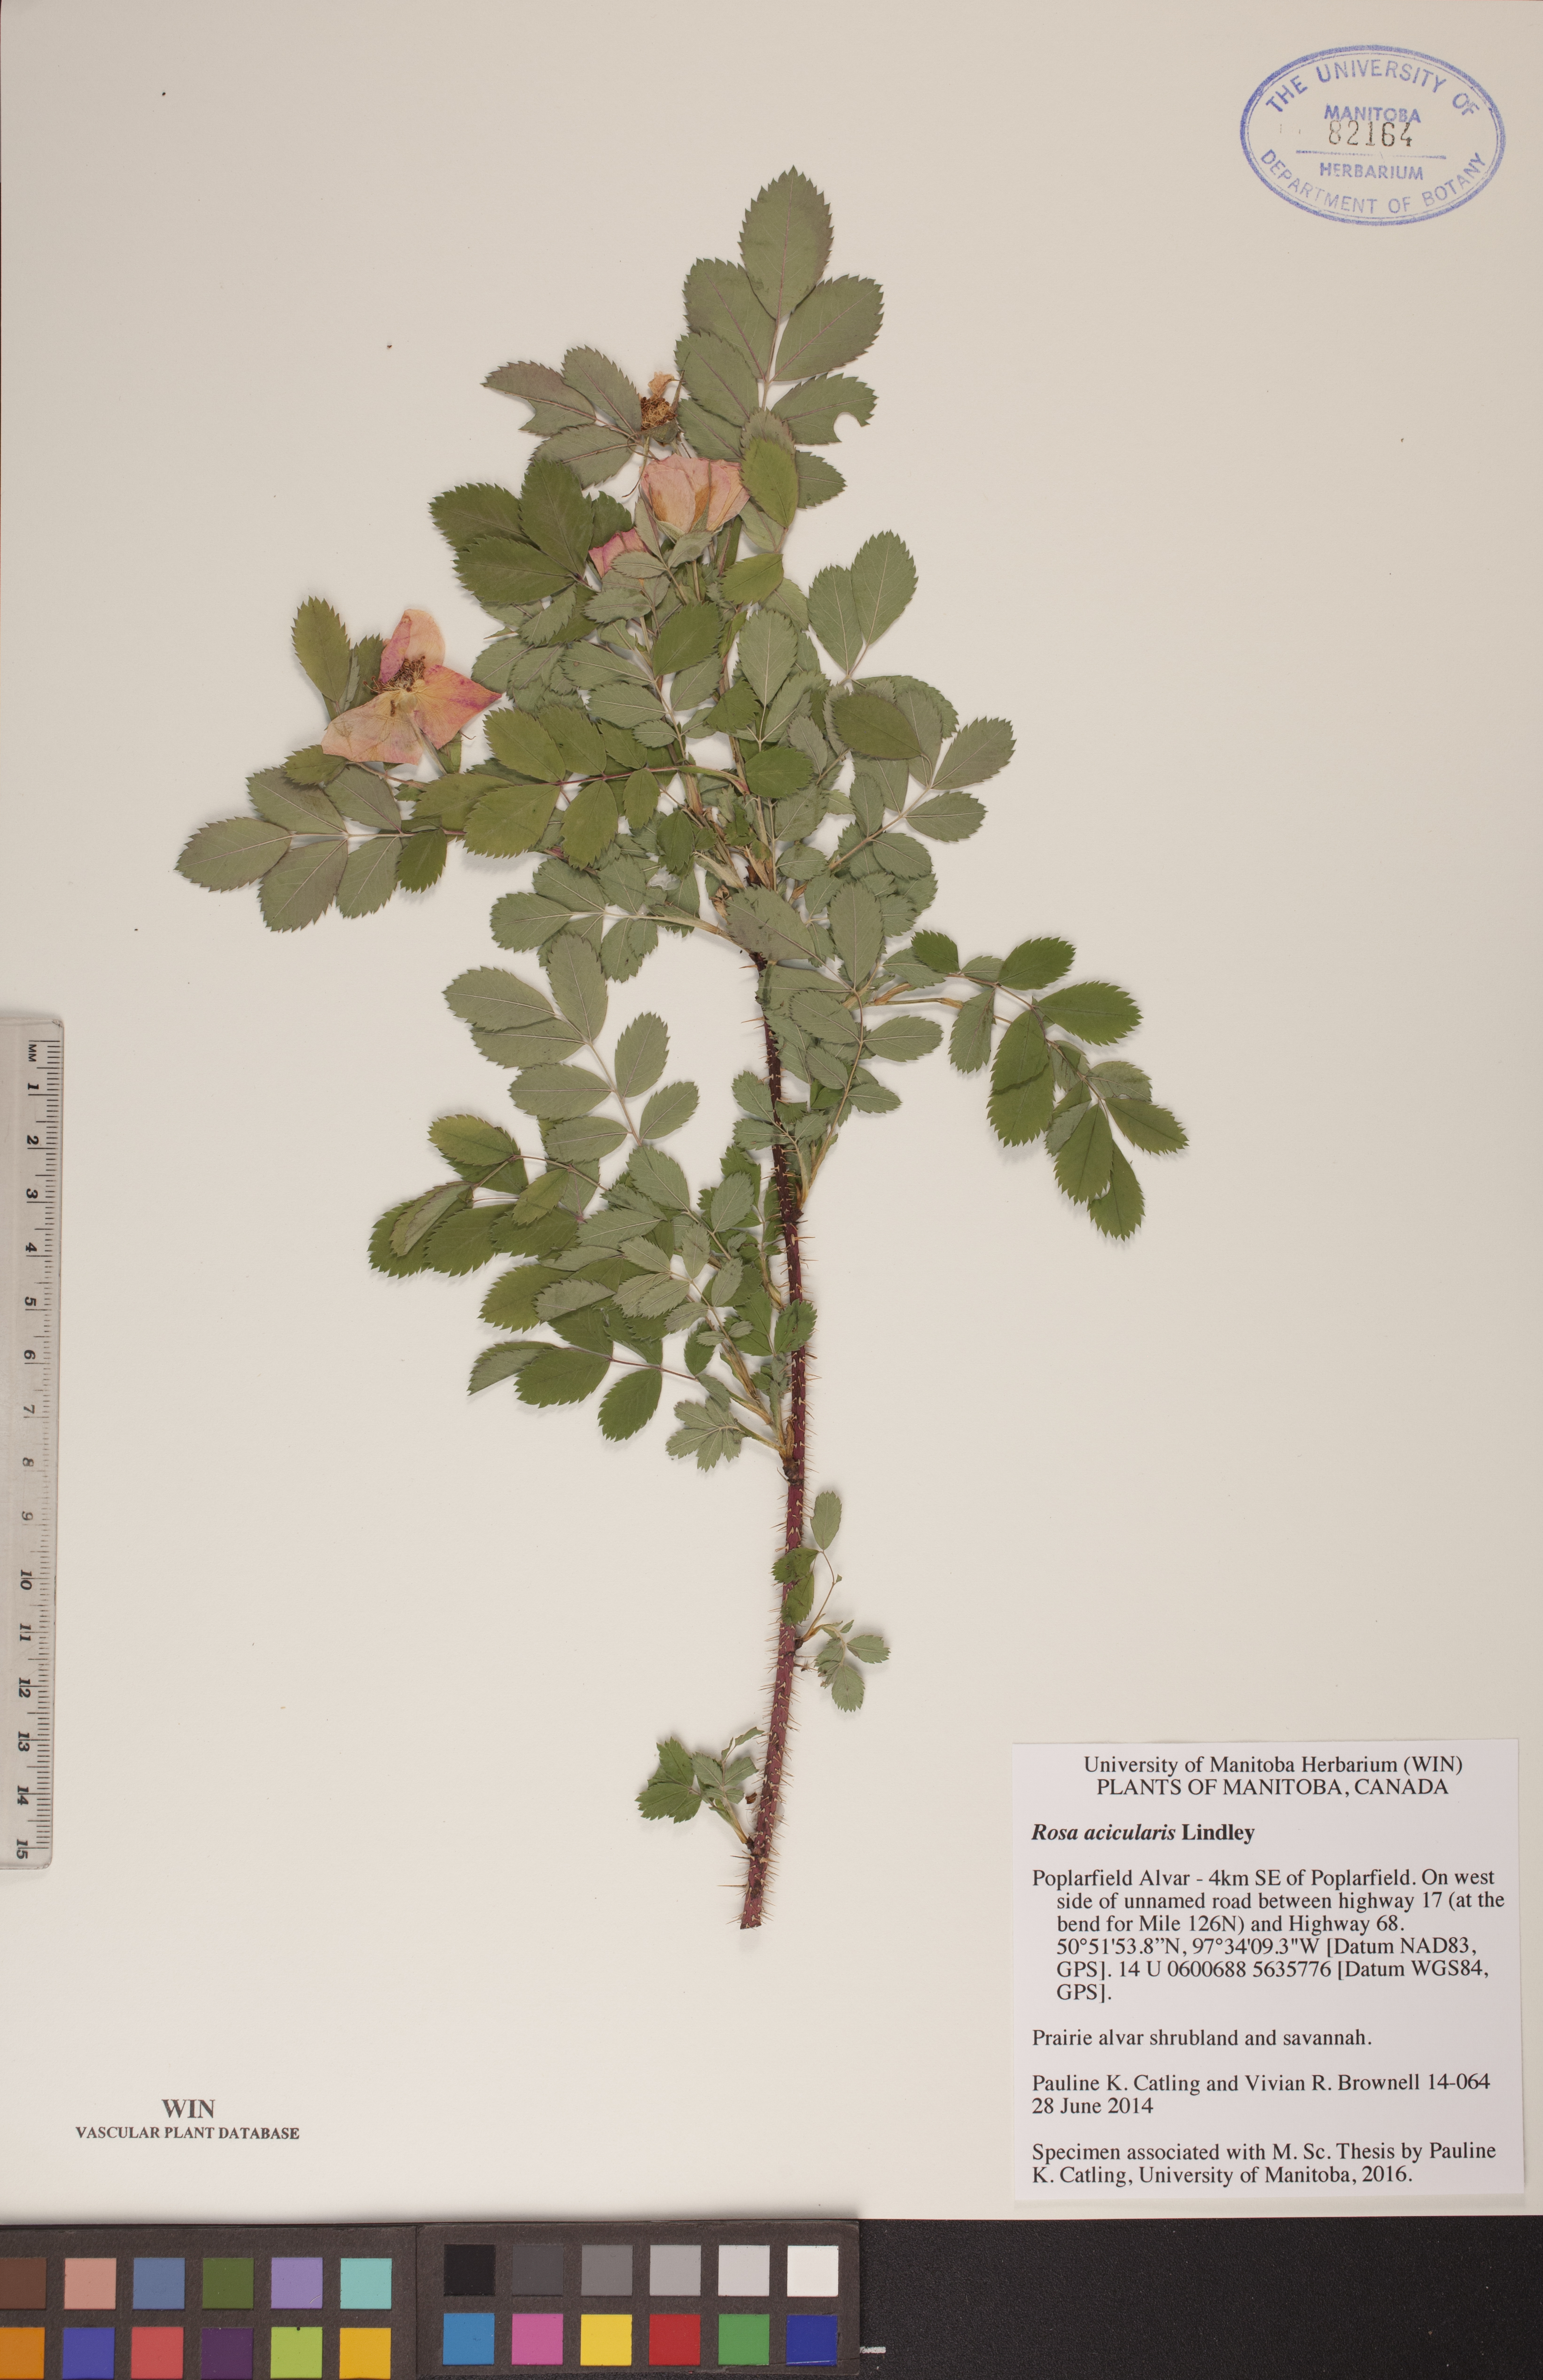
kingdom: Plantae
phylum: Tracheophyta
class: Magnoliopsida
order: Rosales
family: Rosaceae
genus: Rosa
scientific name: Rosa acicularis
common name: Prickly rose
